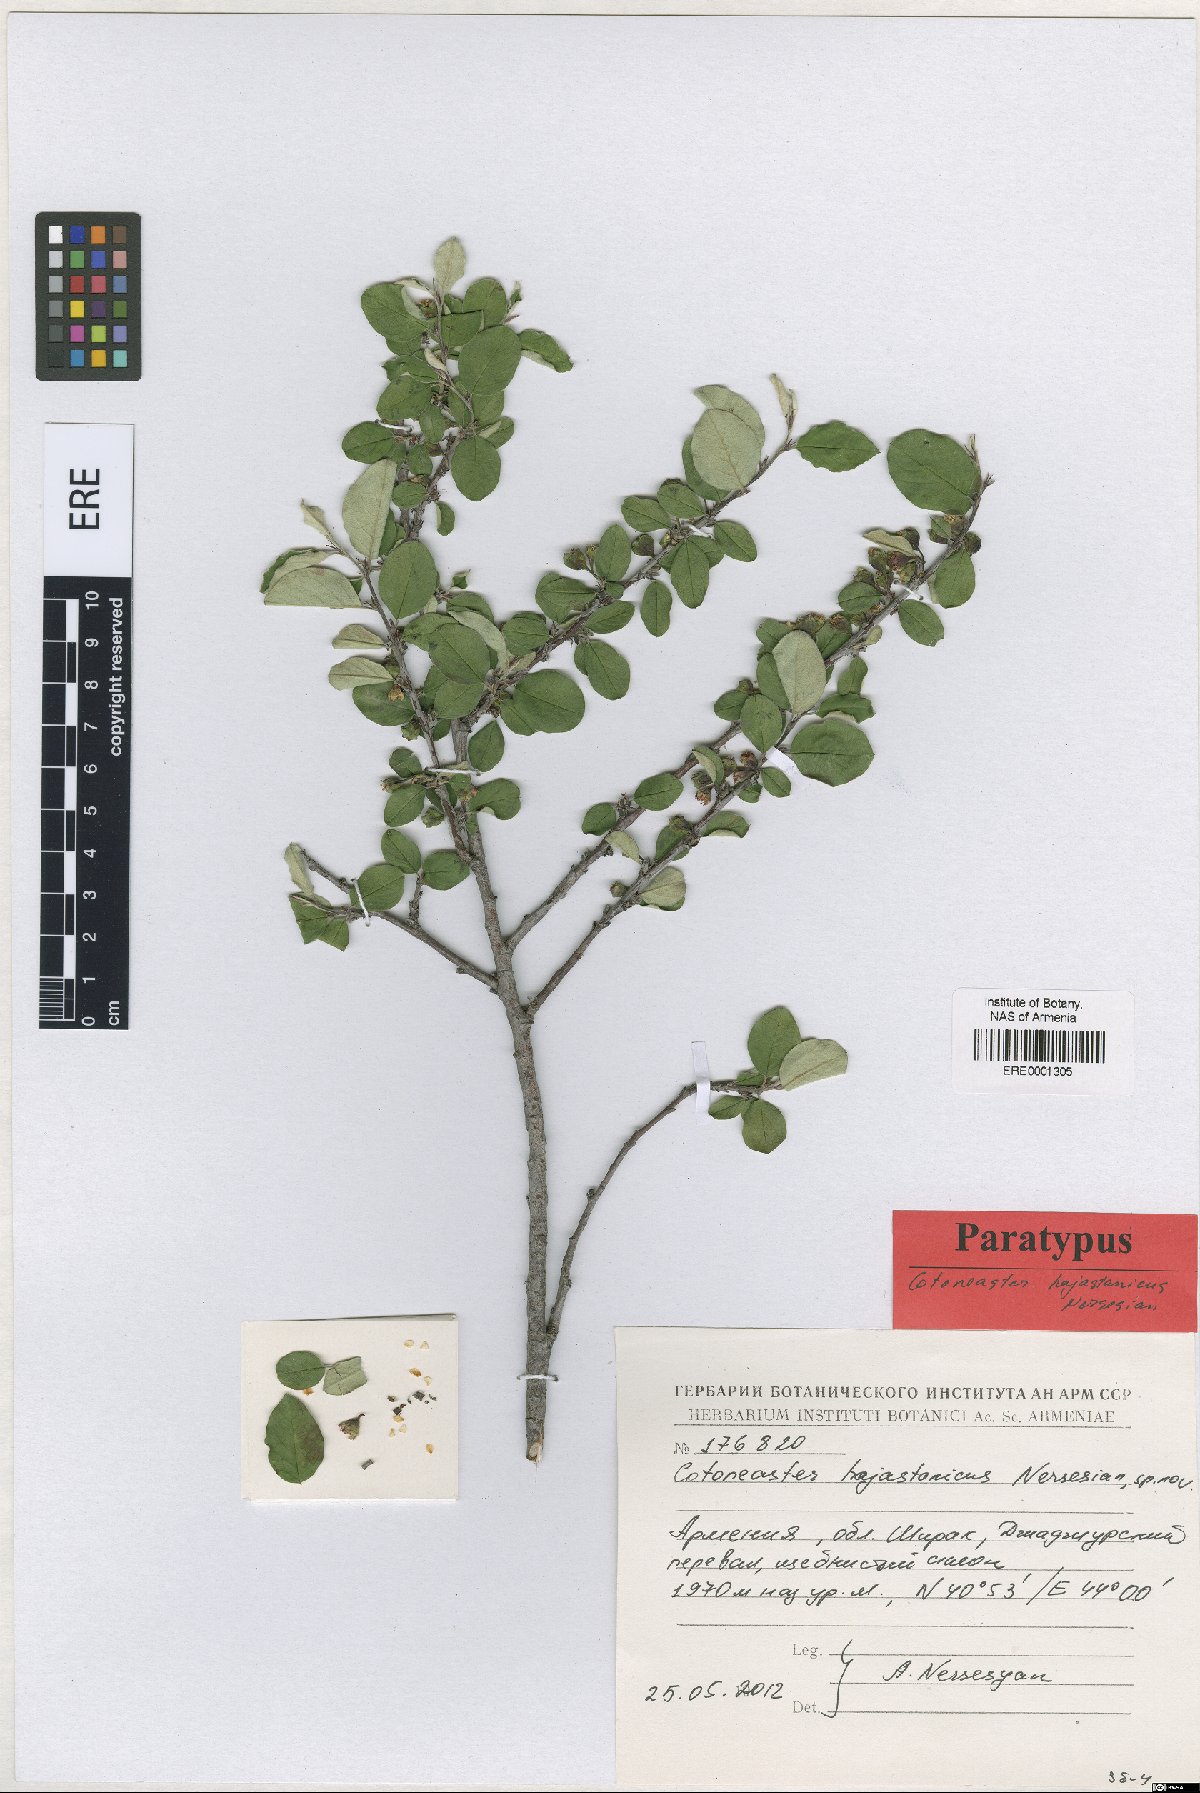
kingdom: Plantae
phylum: Tracheophyta
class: Magnoliopsida
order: Rosales
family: Rosaceae
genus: Cotoneaster
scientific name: Cotoneaster hajastanicus
